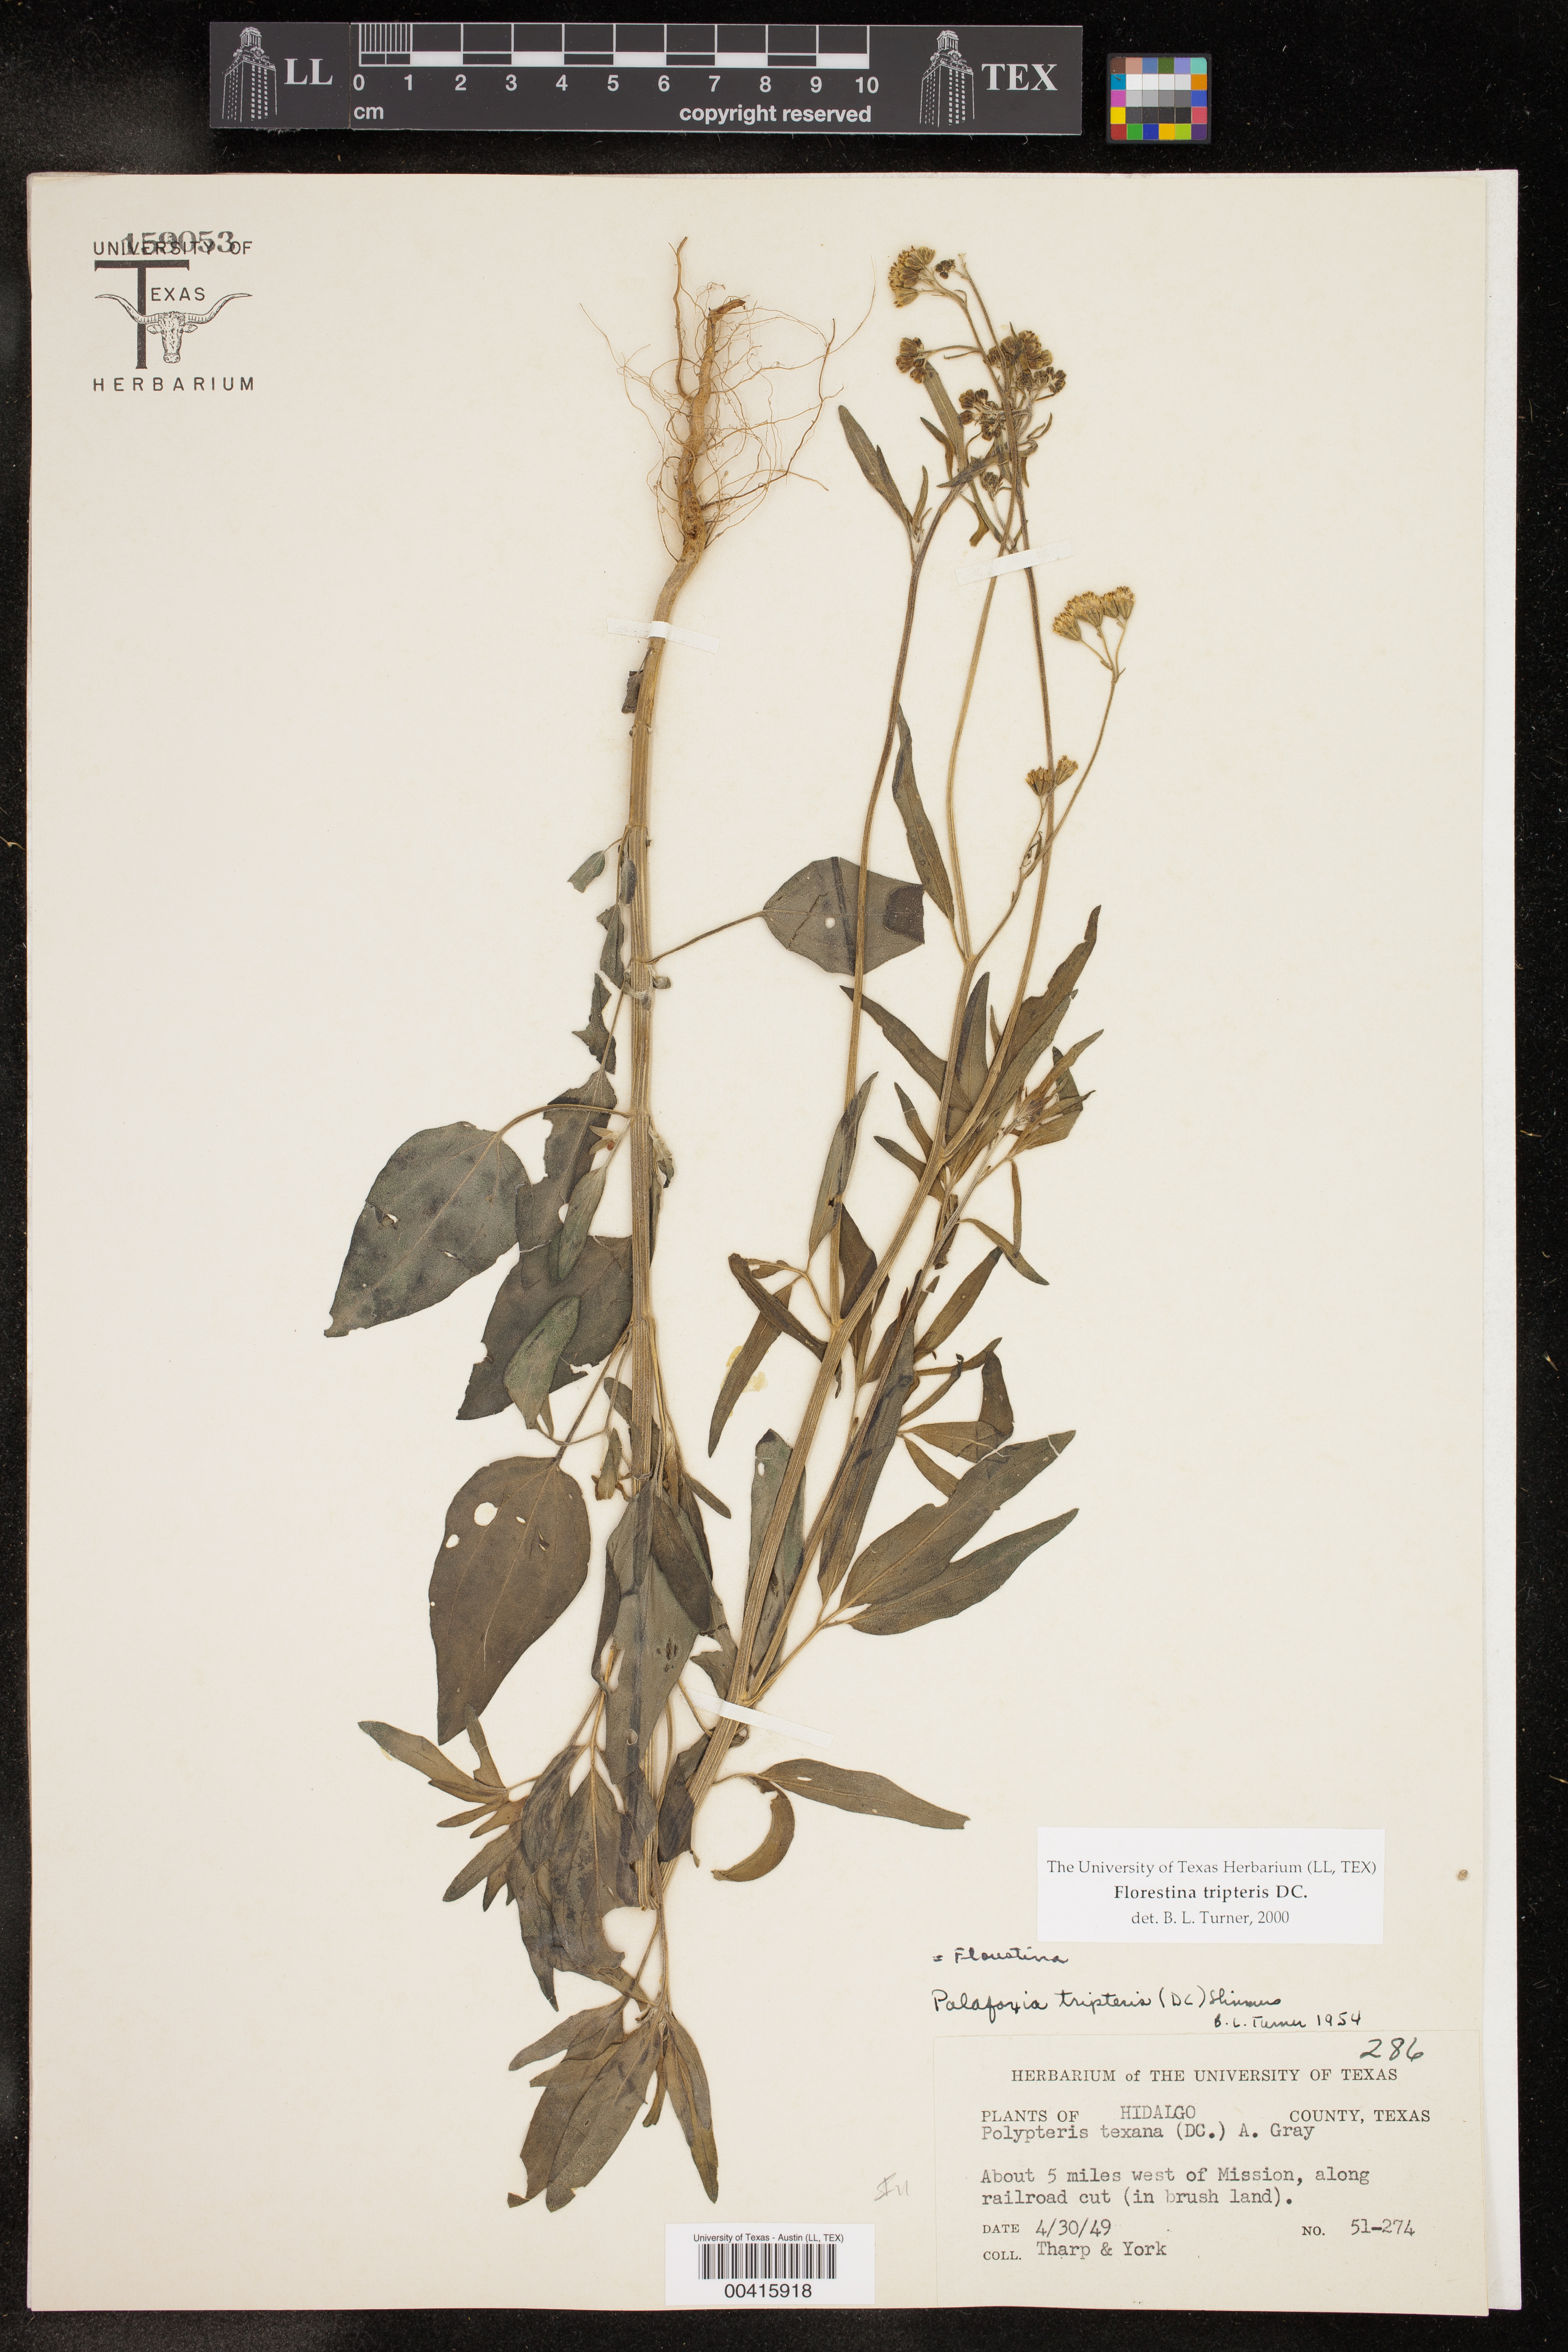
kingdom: Plantae
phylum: Tracheophyta
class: Magnoliopsida
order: Asterales
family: Asteraceae
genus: Florestina
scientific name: Florestina tripteris
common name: Sticky florestina
